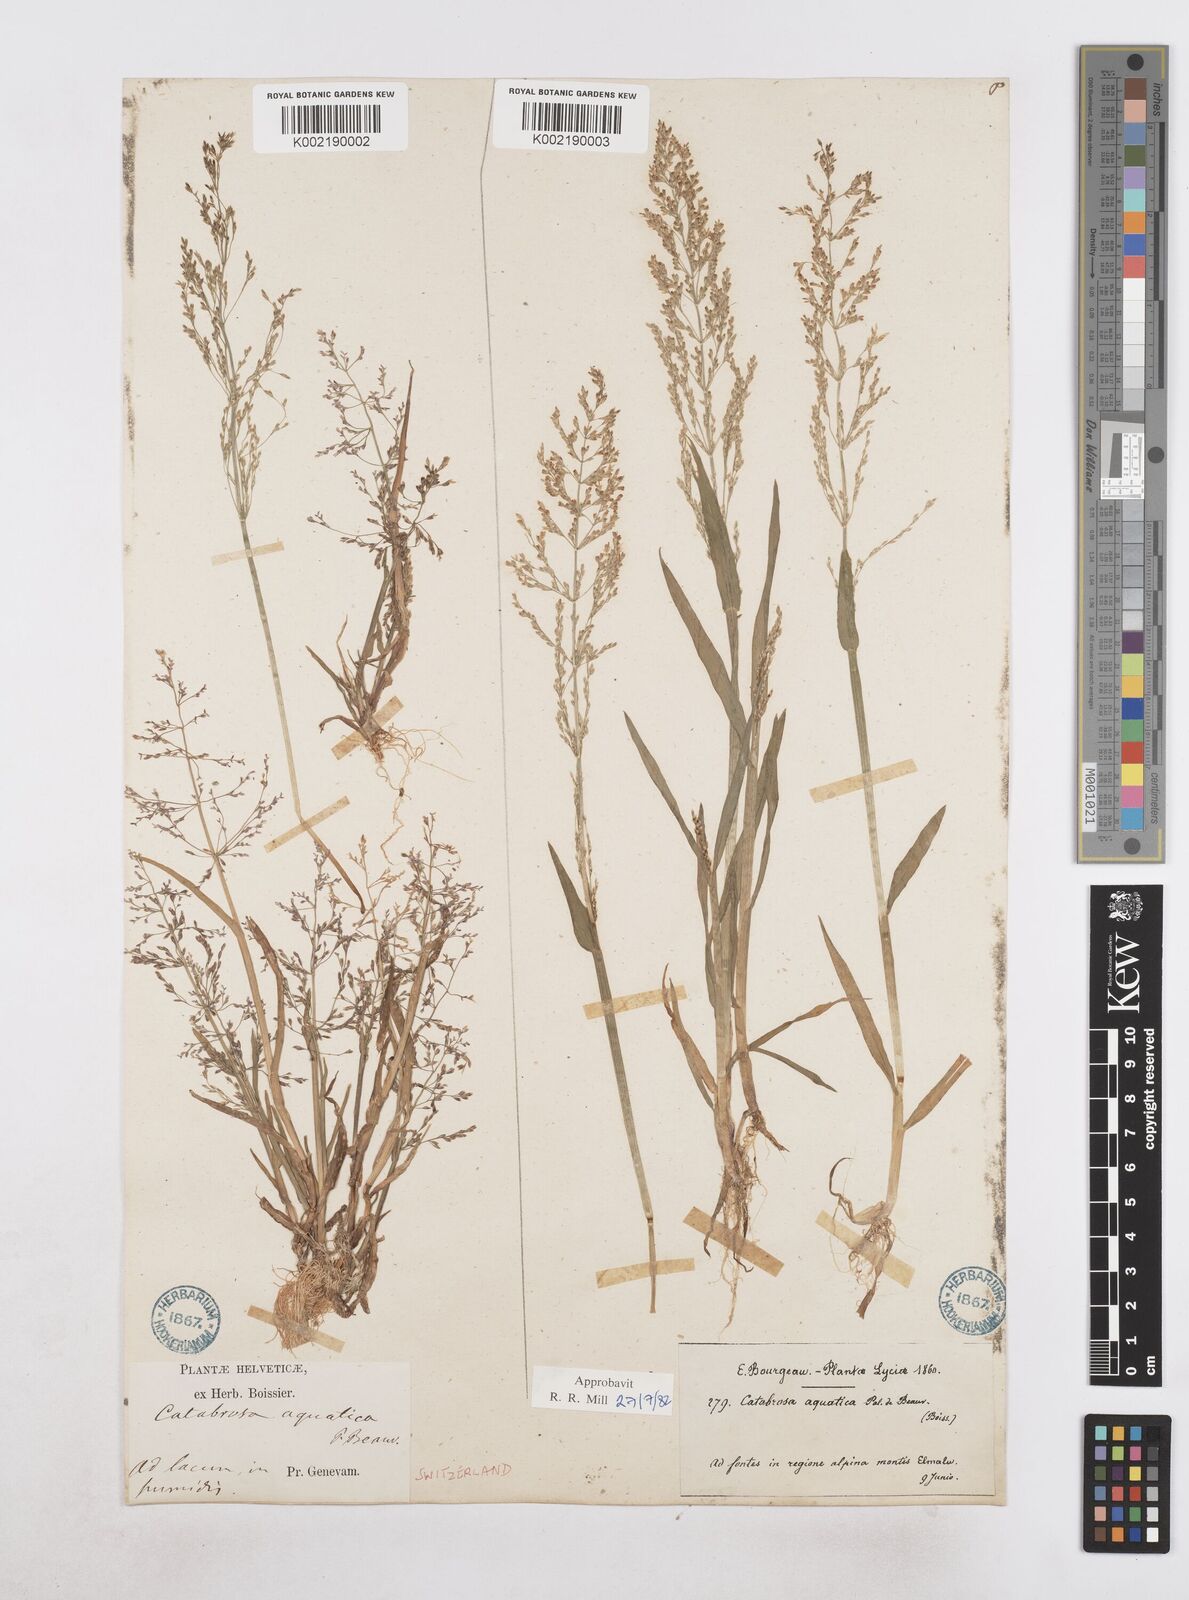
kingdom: Plantae
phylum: Tracheophyta
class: Liliopsida
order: Poales
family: Poaceae
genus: Catabrosa
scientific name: Catabrosa aquatica
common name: Whorl-grass
